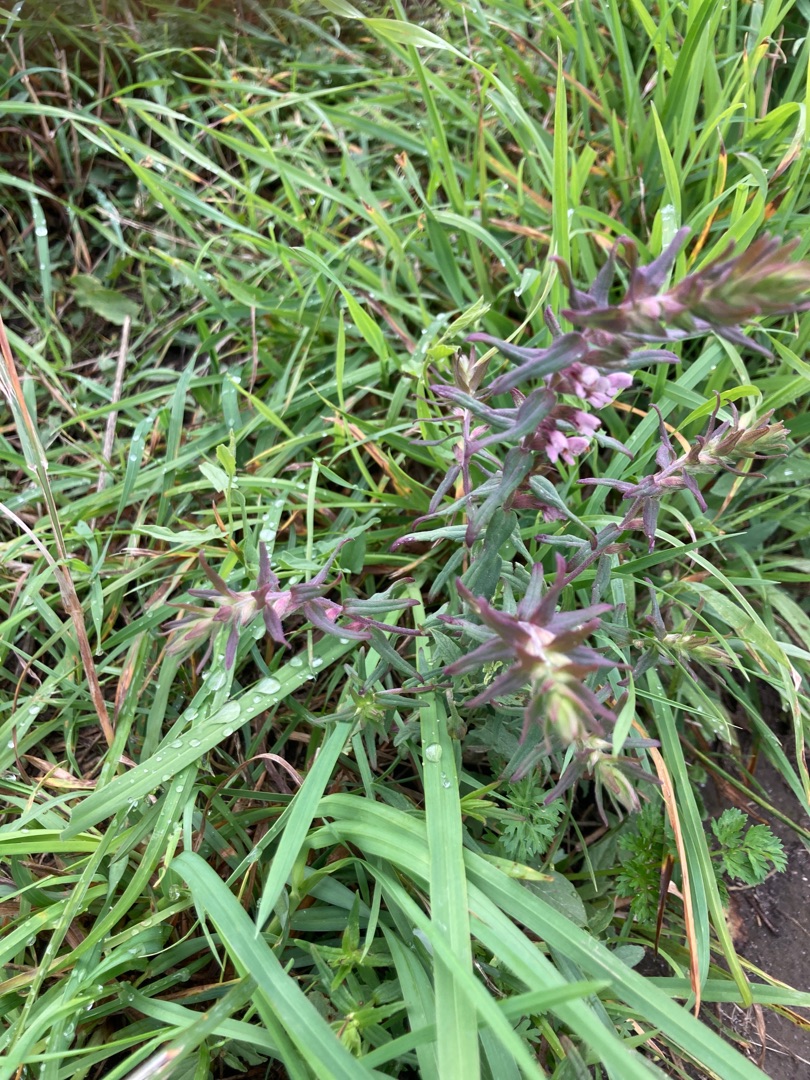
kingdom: Plantae
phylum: Tracheophyta
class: Magnoliopsida
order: Lamiales
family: Orobanchaceae
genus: Odontites
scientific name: Odontites vernus
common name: Mark-rødtop
